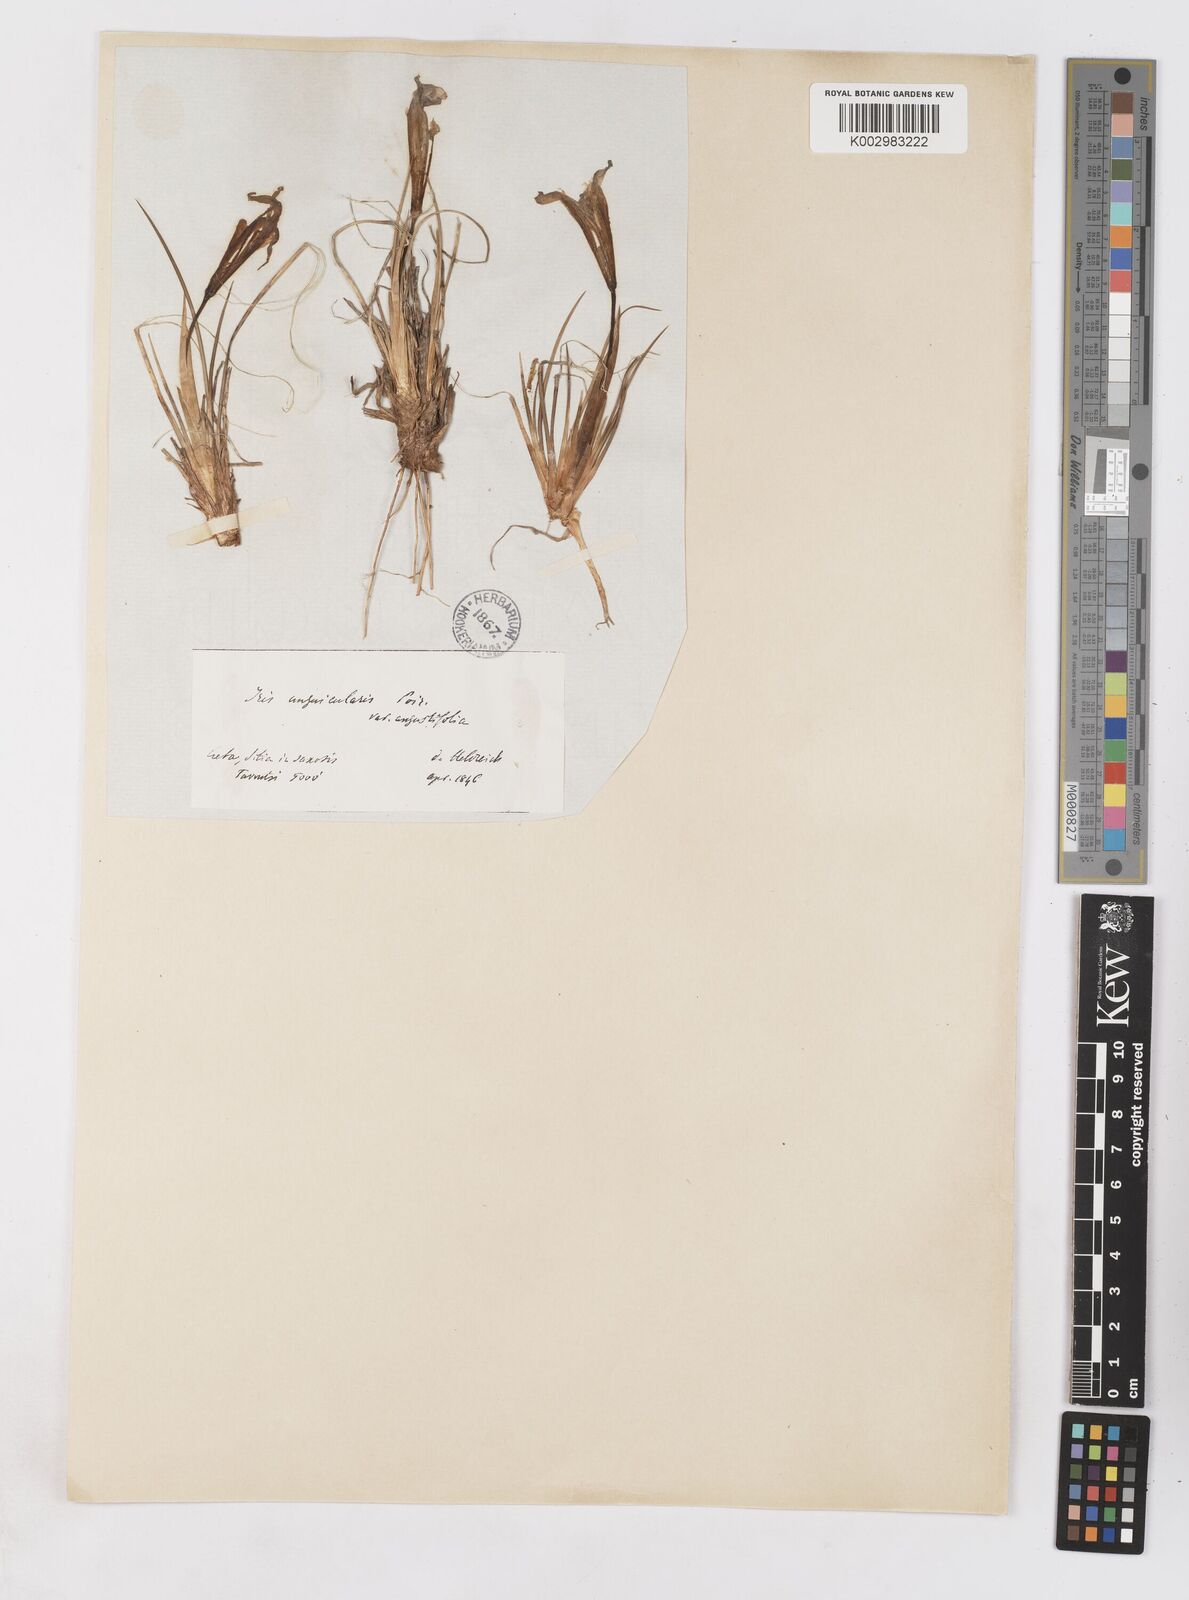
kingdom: Plantae
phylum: Tracheophyta
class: Liliopsida
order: Asparagales
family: Iridaceae
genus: Iris
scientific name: Iris unguicularis
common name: Algerian iris
